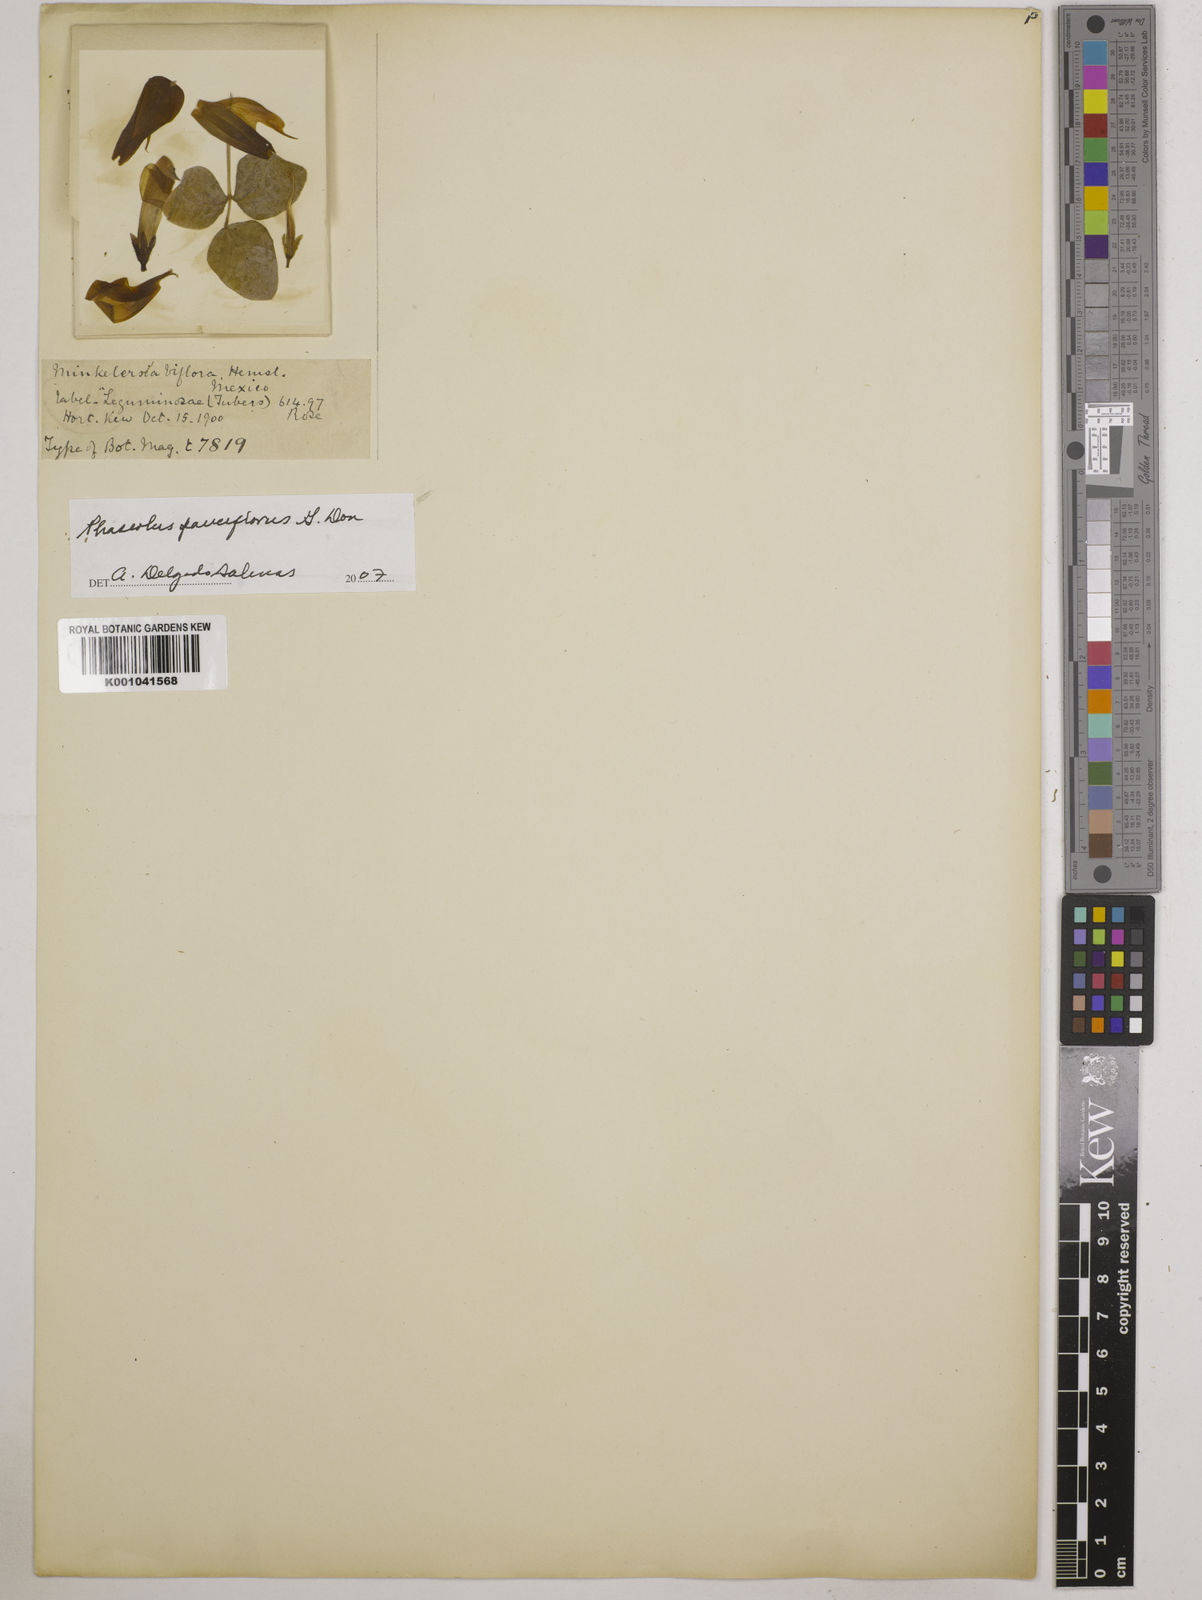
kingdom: Plantae
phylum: Tracheophyta
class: Magnoliopsida
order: Fabales
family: Fabaceae
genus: Phaseolus
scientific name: Phaseolus
